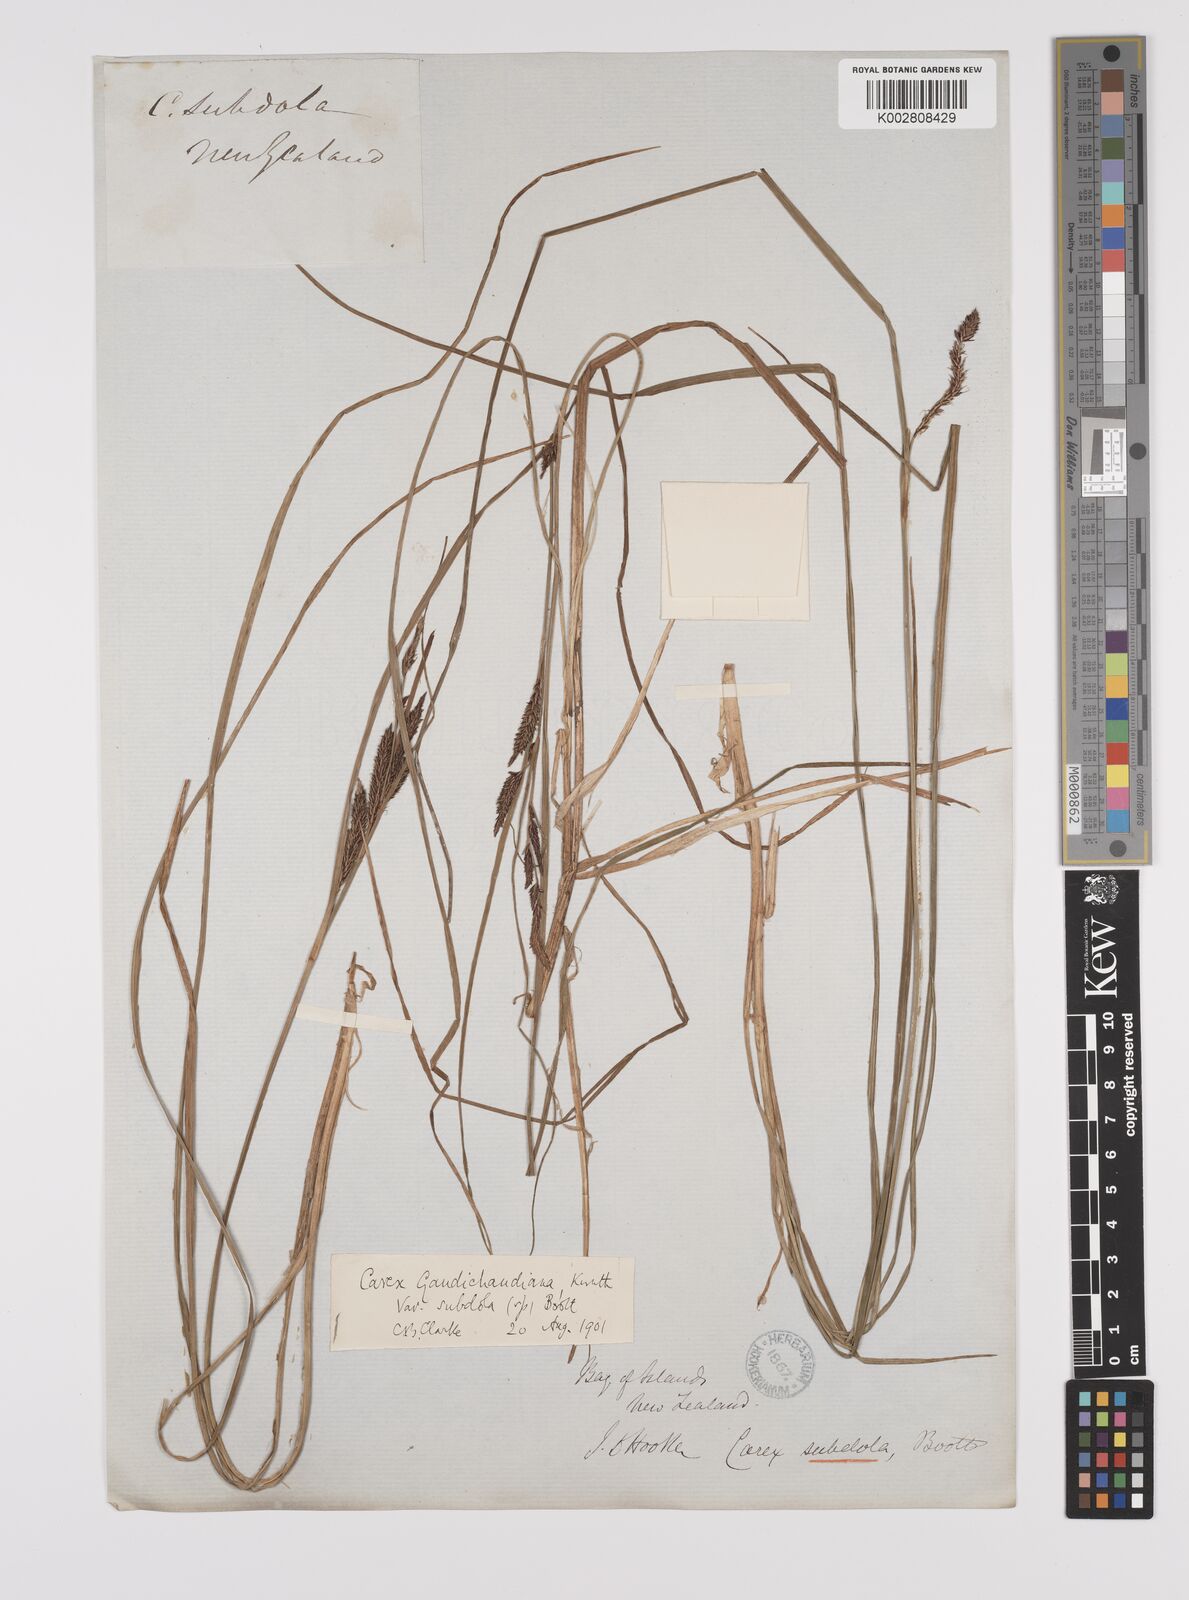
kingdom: Plantae
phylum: Tracheophyta
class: Liliopsida
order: Poales
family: Cyperaceae
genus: Carex
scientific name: Carex subdola
